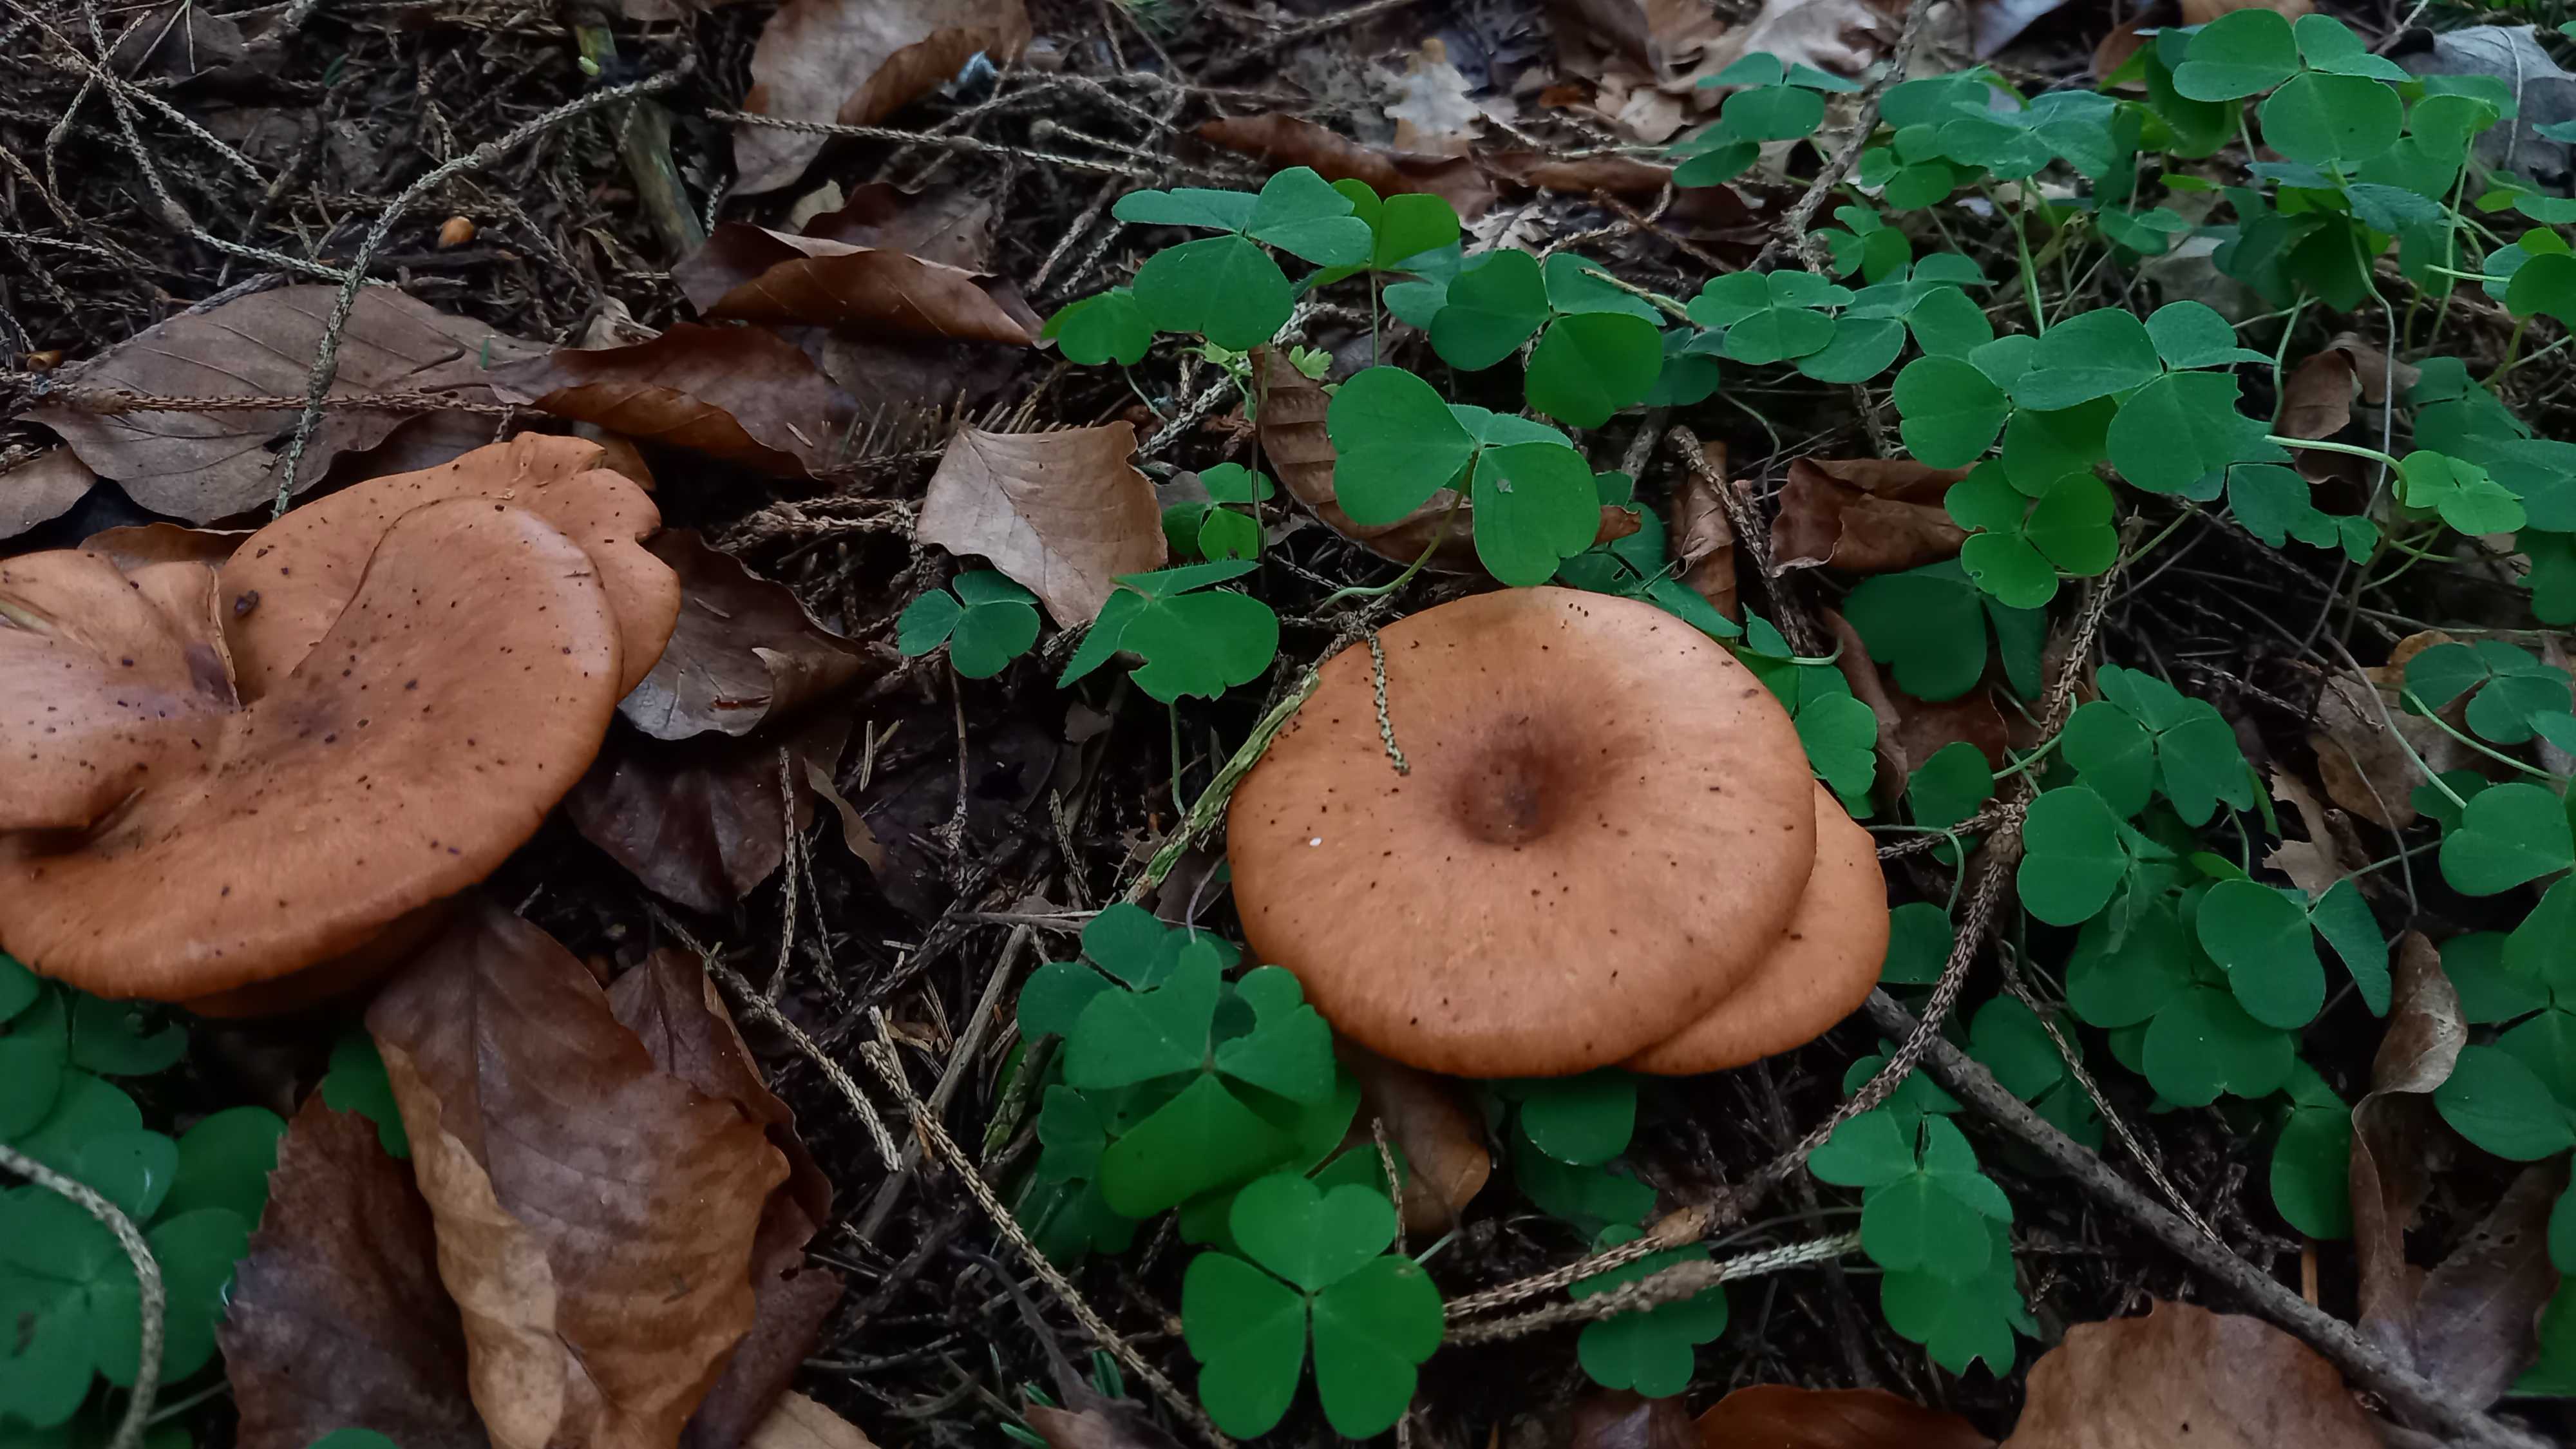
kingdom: Fungi
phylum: Basidiomycota
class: Agaricomycetes
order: Agaricales
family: Tricholomataceae
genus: Paralepista
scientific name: Paralepista flaccida
